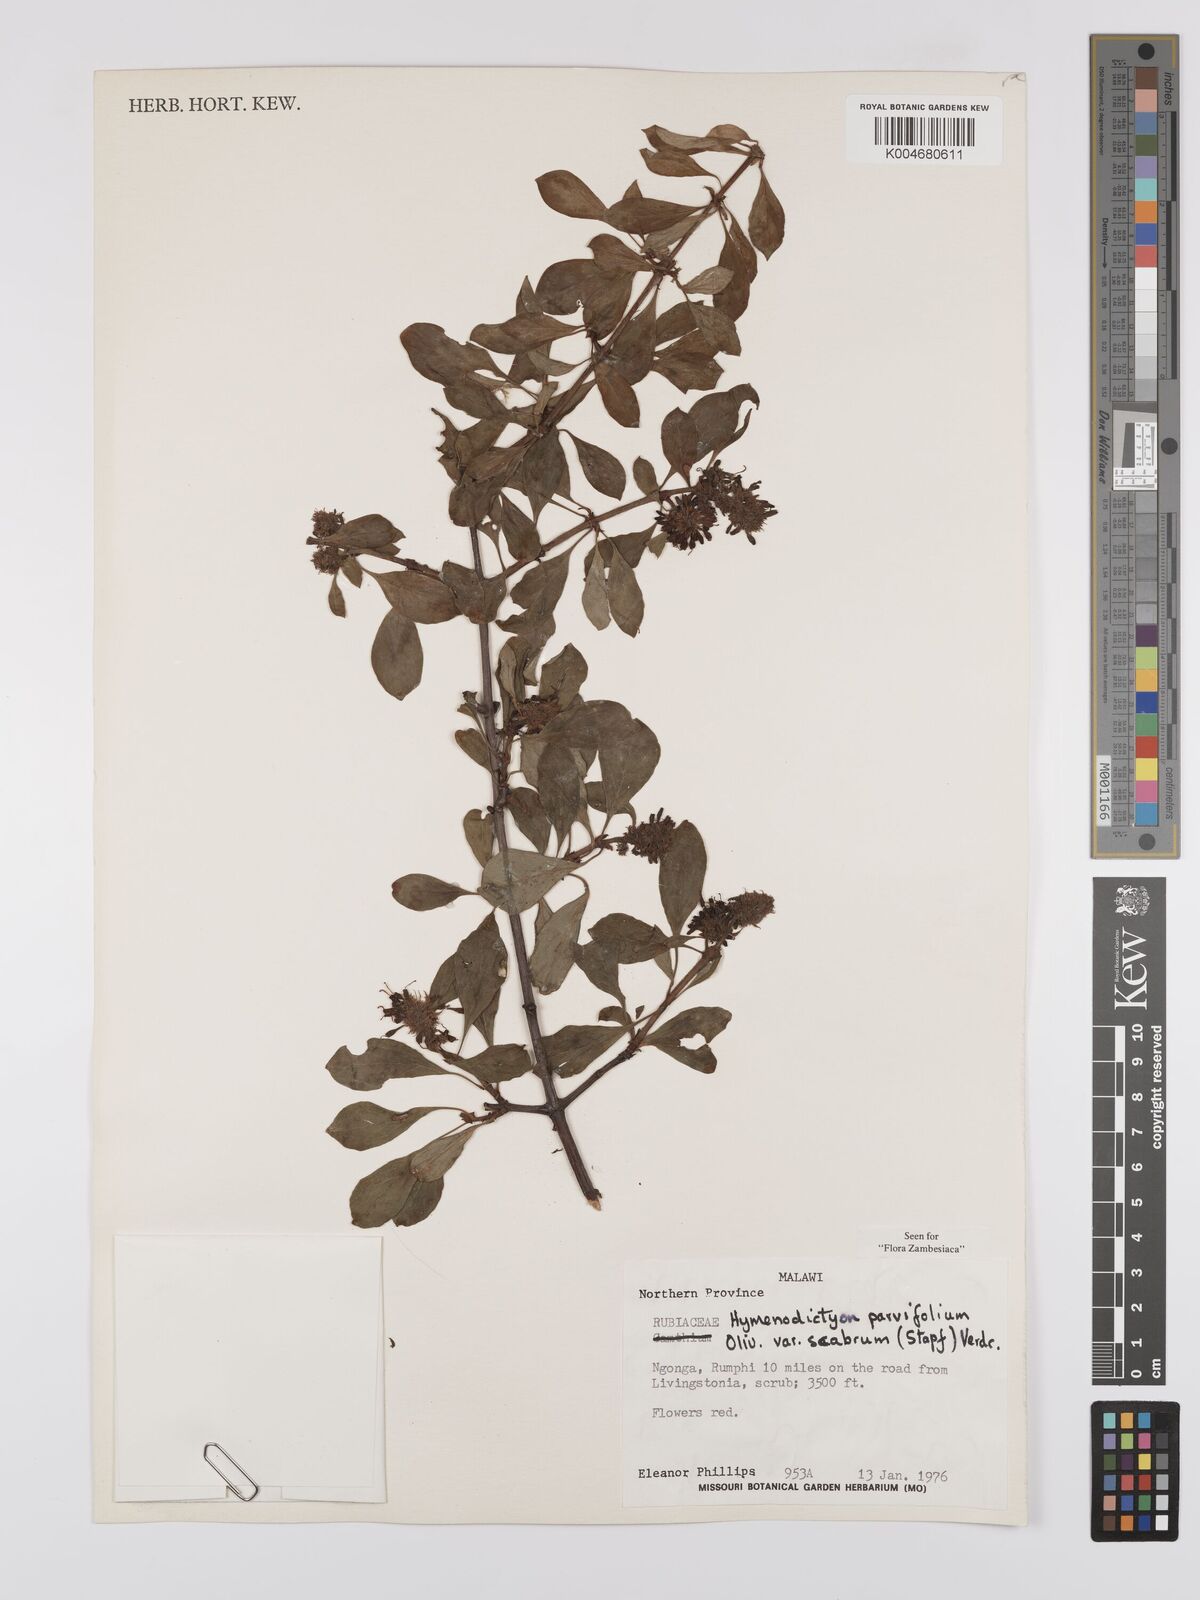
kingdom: Plantae
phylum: Tracheophyta
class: Magnoliopsida
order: Gentianales
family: Rubiaceae
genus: Hymenodictyon
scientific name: Hymenodictyon parvifolium
